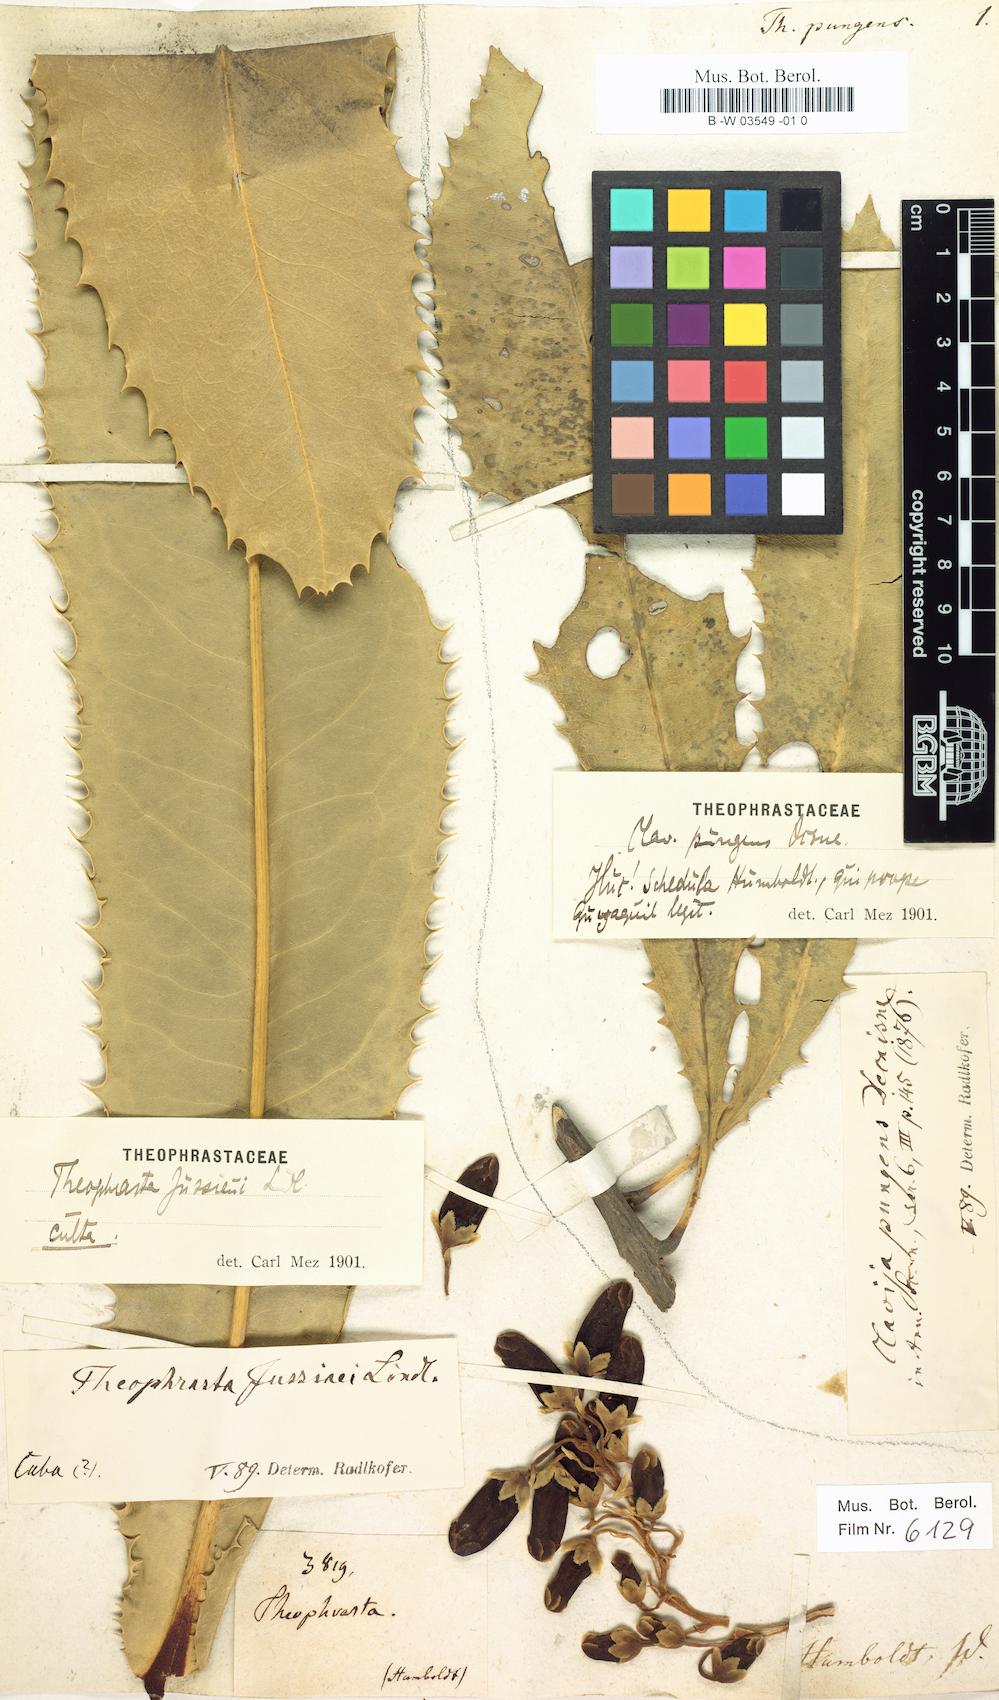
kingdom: Plantae
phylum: Tracheophyta
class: Magnoliopsida
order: Ericales
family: Primulaceae
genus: Clavija
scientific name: Clavija
